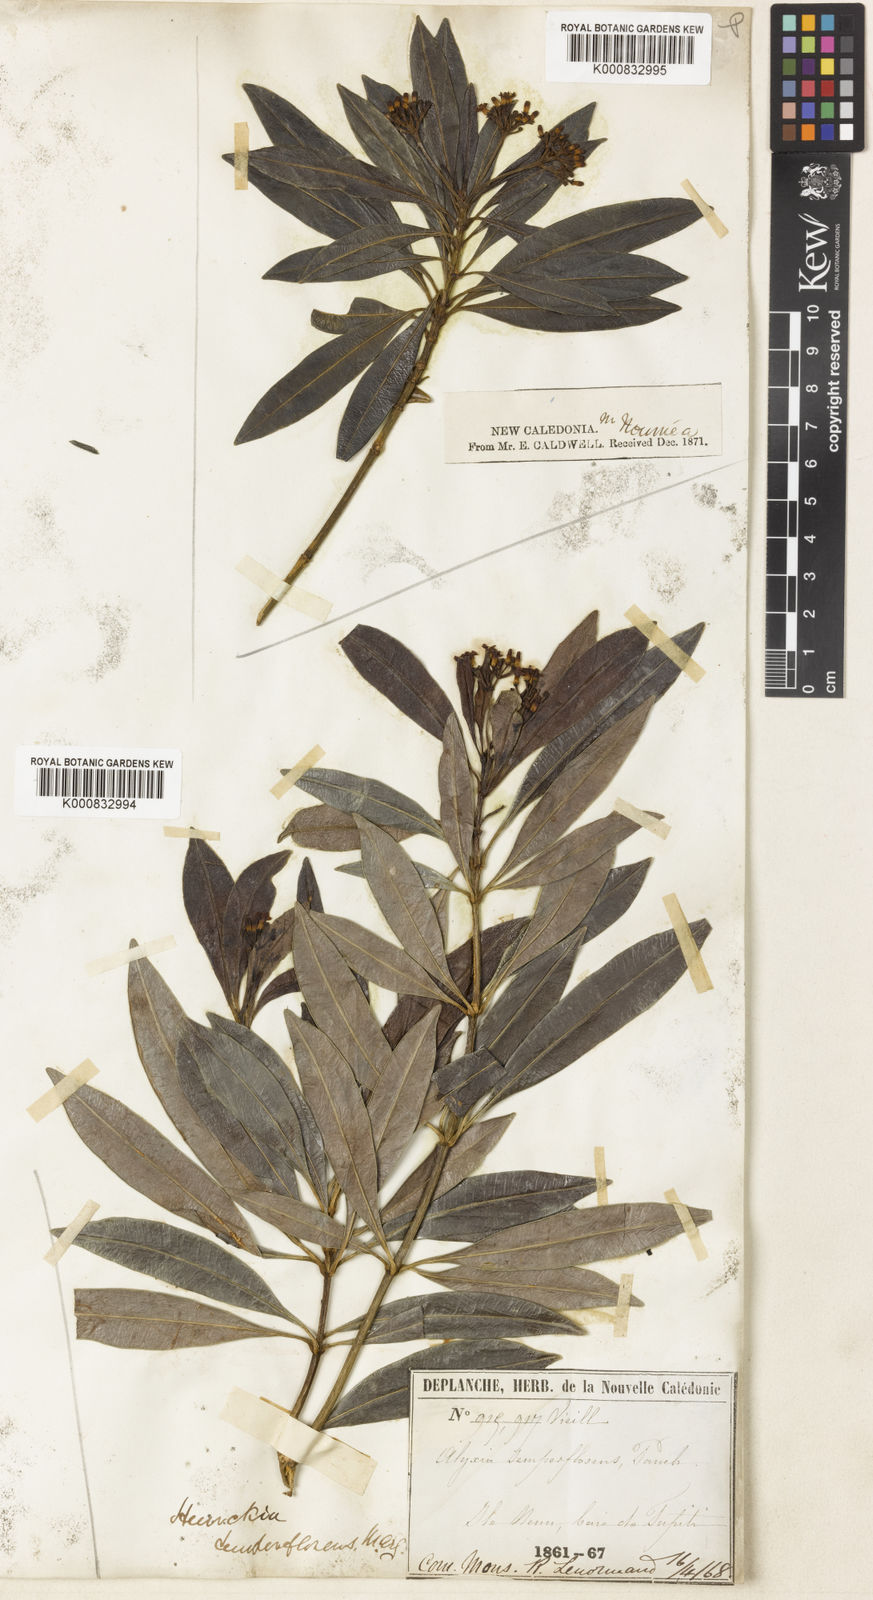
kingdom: Plantae
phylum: Tracheophyta
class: Magnoliopsida
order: Gentianales
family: Apocynaceae
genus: Rauvolfia
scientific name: Rauvolfia
